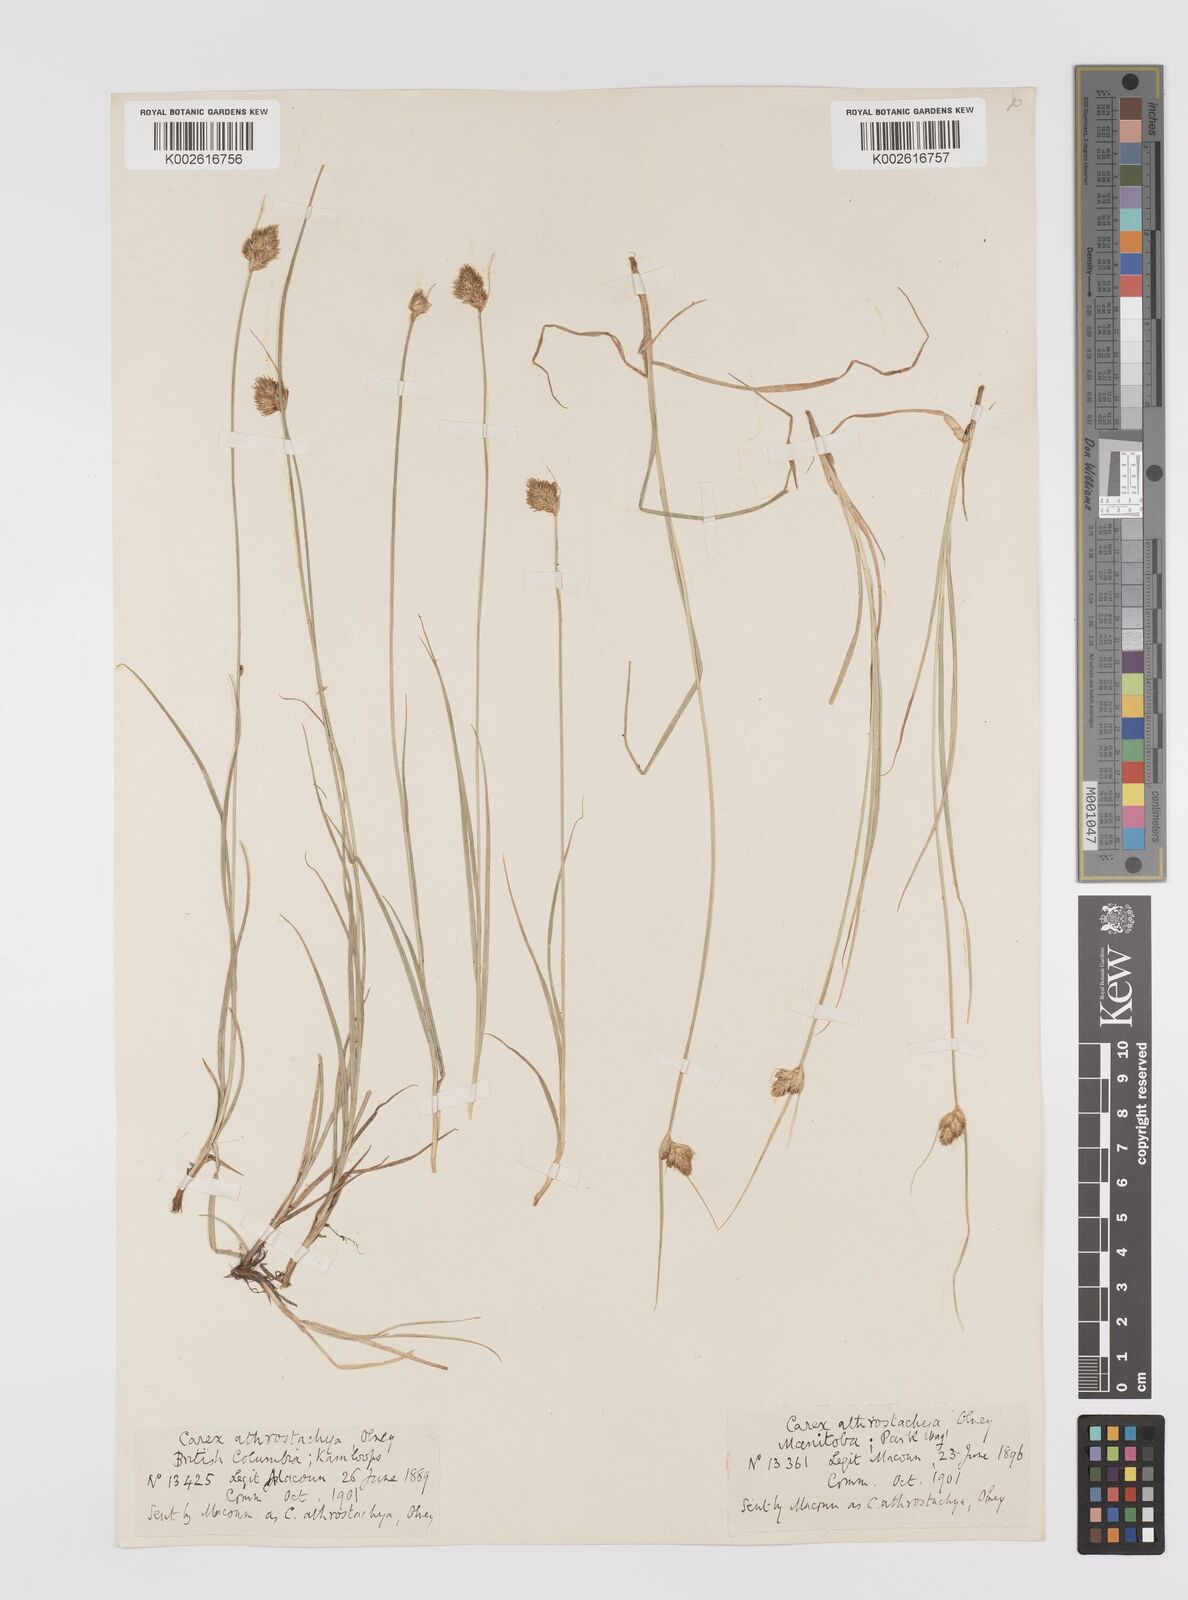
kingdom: Plantae
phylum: Tracheophyta
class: Liliopsida
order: Poales
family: Cyperaceae
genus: Carex
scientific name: Carex athrostachya
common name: Slenderbeak sedge
